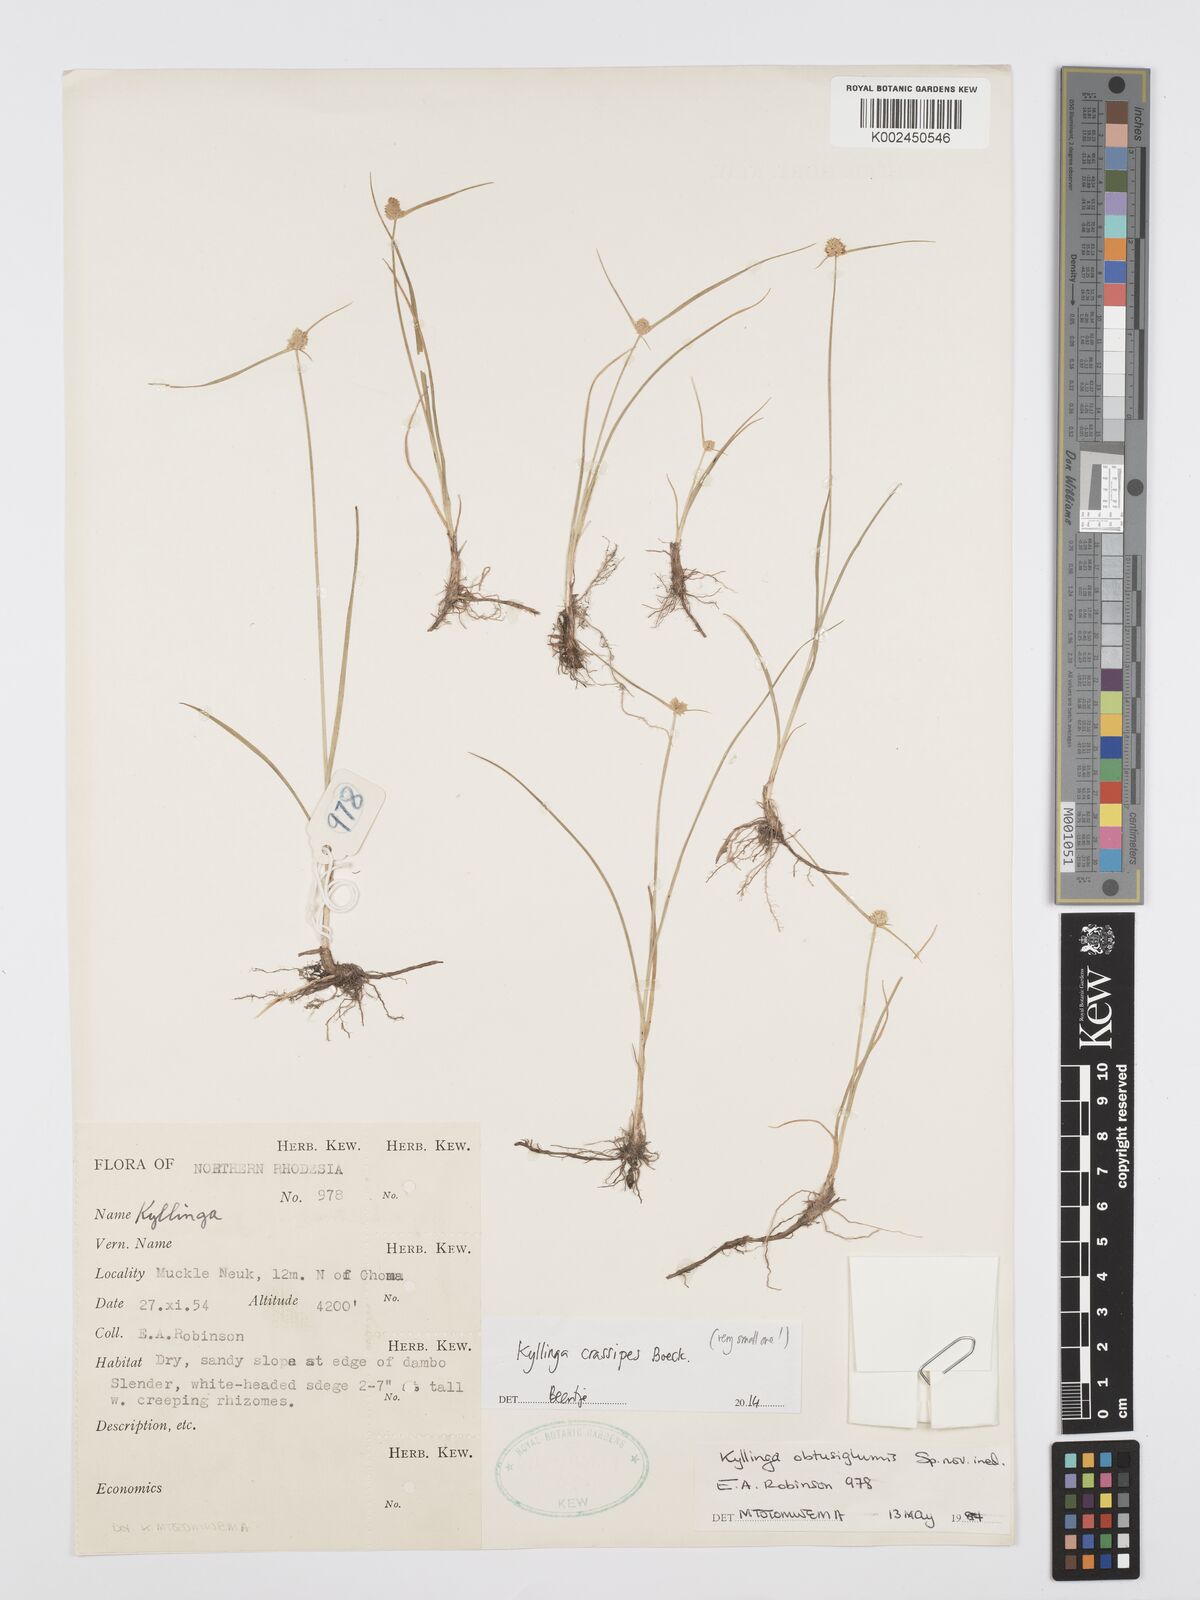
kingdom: Plantae
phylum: Tracheophyta
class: Liliopsida
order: Poales
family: Cyperaceae
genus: Cyperus
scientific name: Cyperus crassipes
